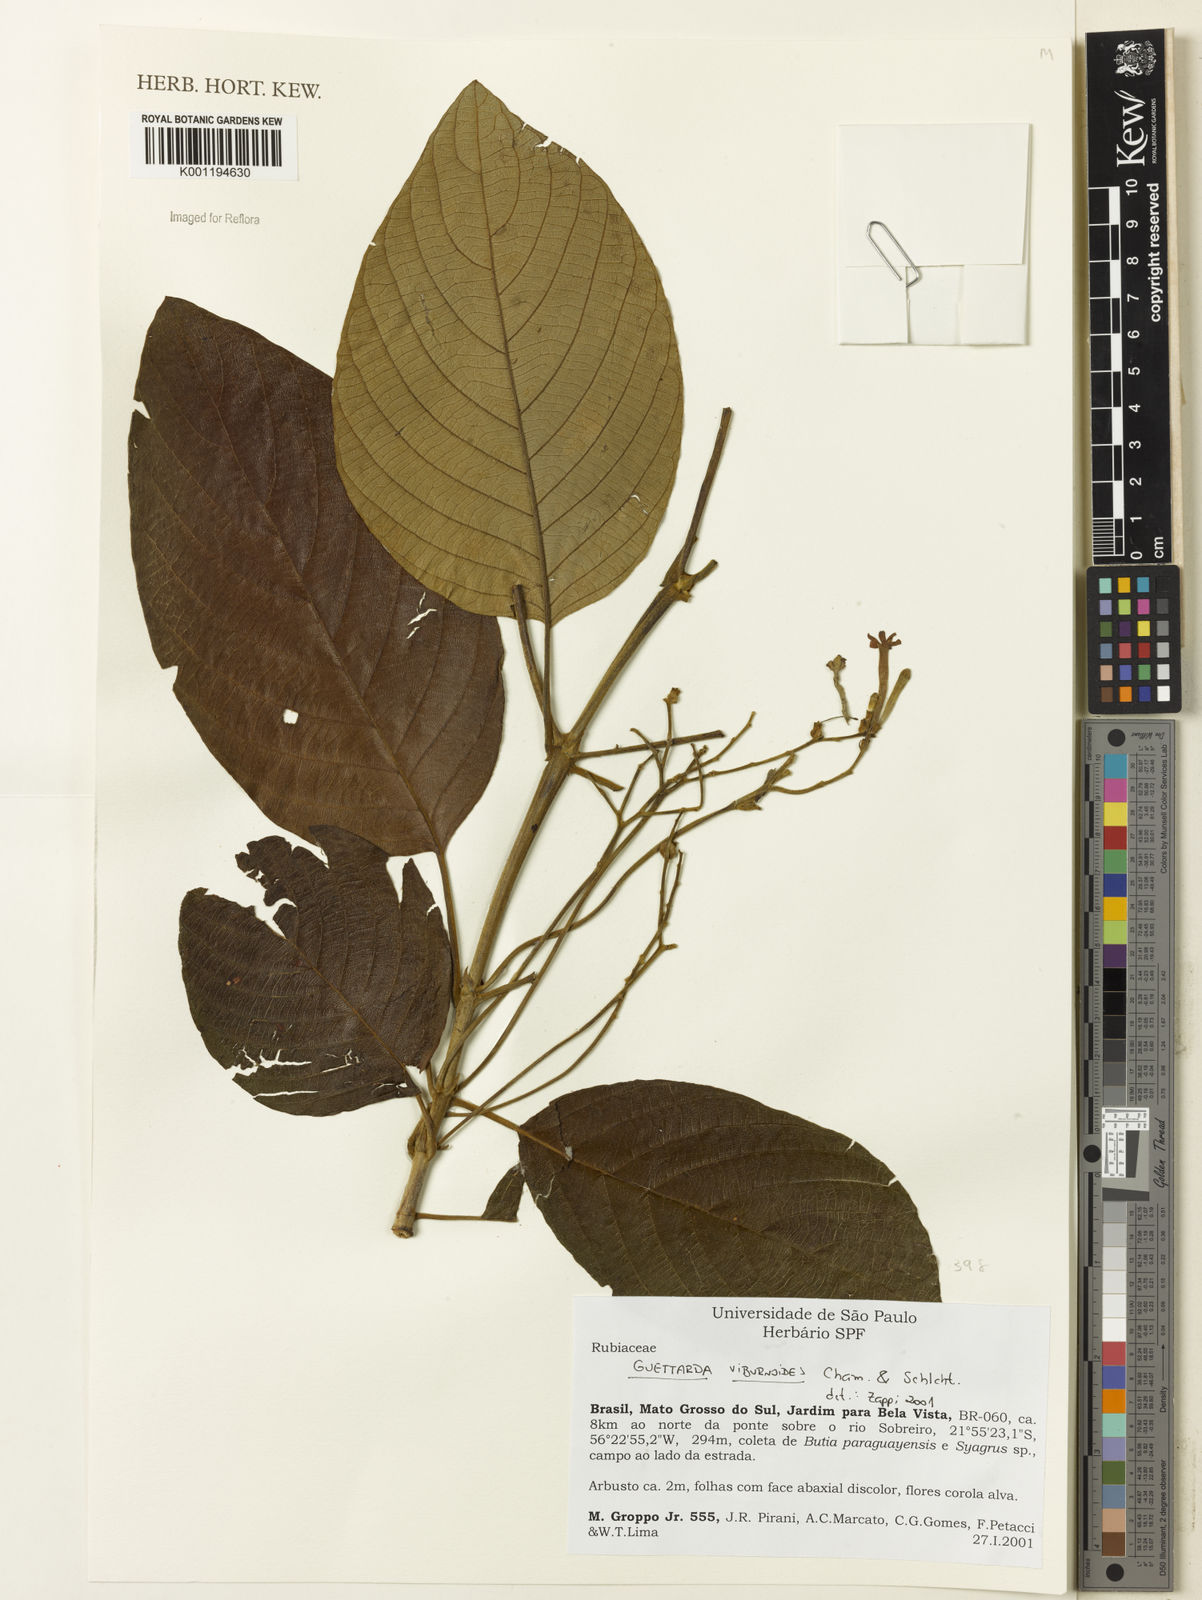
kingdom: Plantae
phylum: Tracheophyta
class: Magnoliopsida
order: Gentianales
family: Rubiaceae
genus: Guettarda
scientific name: Guettarda viburnoides
